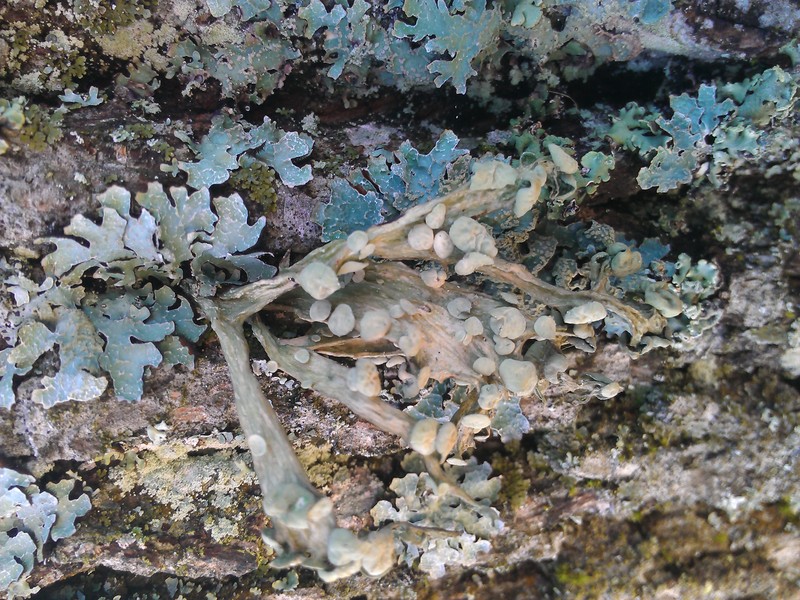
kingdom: Fungi
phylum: Ascomycota
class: Lecanoromycetes
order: Lecanorales
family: Ramalinaceae
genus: Ramalina
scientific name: Ramalina fraxinea
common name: Cartilage lichen
